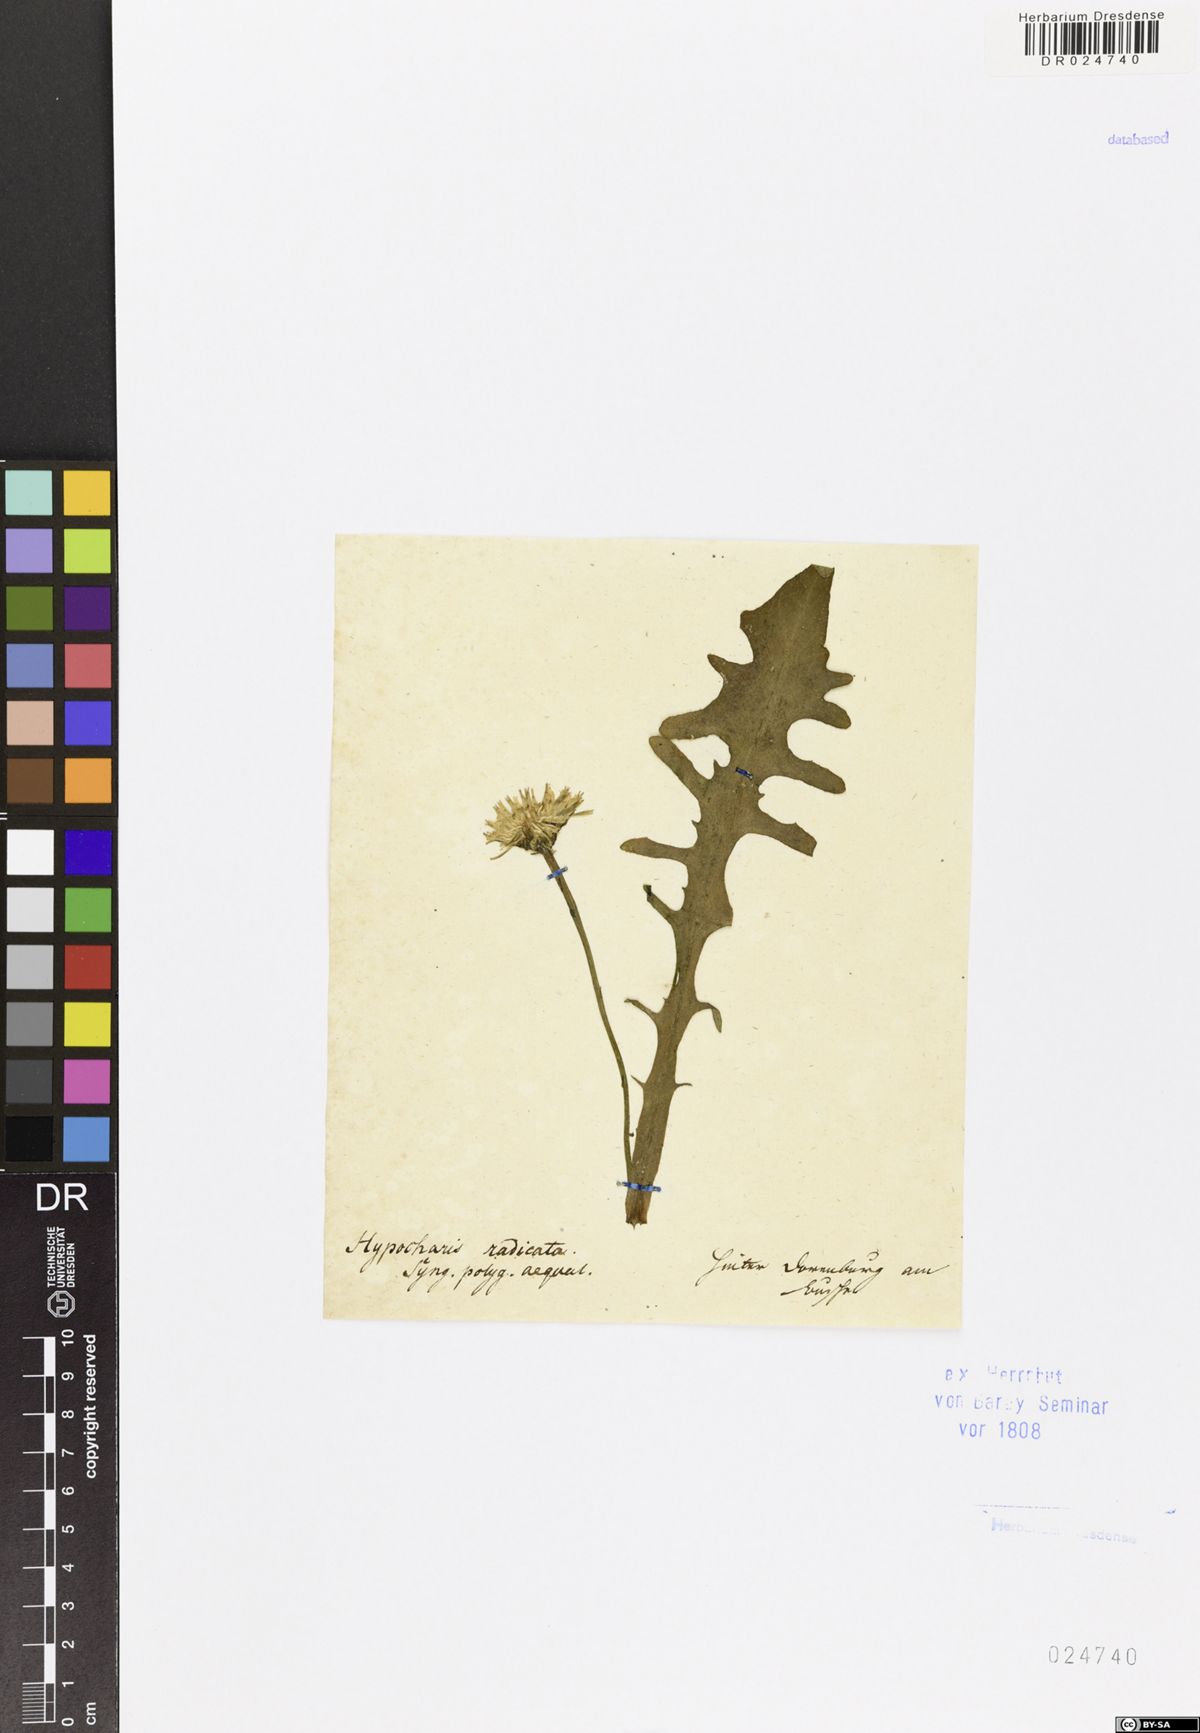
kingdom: Plantae
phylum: Tracheophyta
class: Magnoliopsida
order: Asterales
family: Asteraceae
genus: Hypochaeris
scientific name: Hypochaeris radicata
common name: Flatweed
